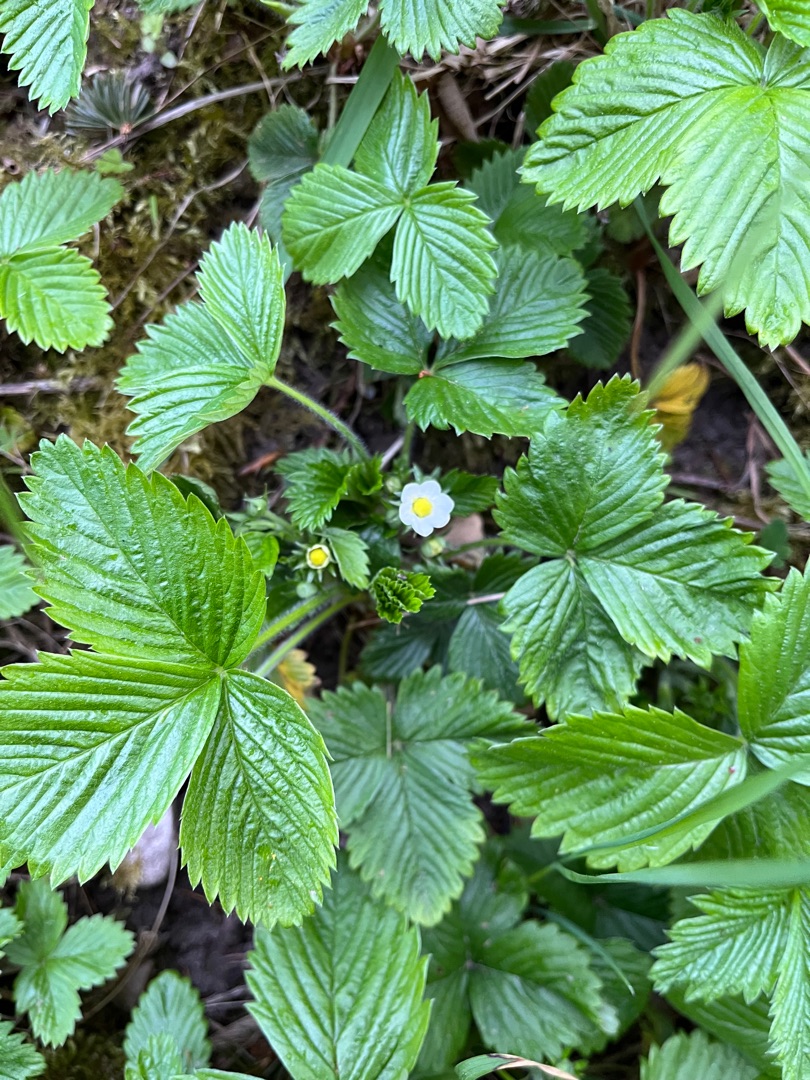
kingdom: Plantae
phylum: Tracheophyta
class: Magnoliopsida
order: Rosales
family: Rosaceae
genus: Fragaria
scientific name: Fragaria vesca
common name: Skov-jordbær
